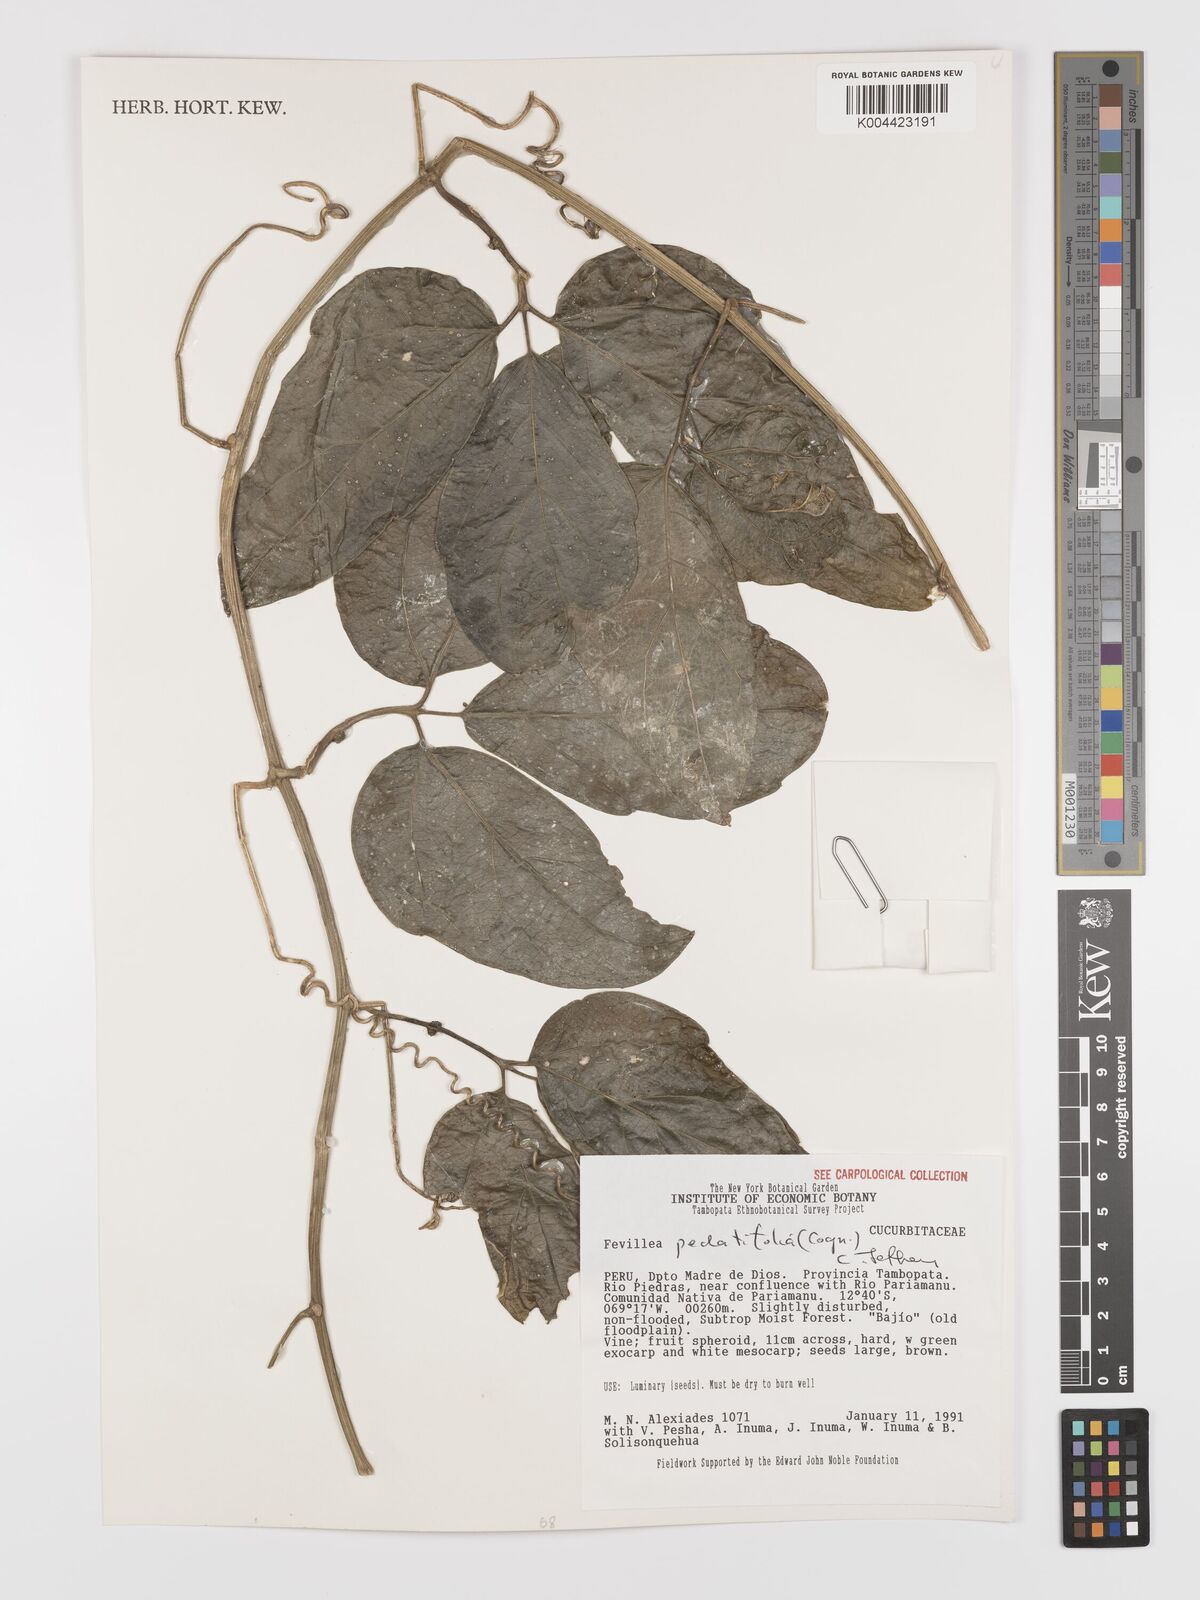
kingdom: Plantae
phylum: Tracheophyta
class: Magnoliopsida
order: Cucurbitales
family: Cucurbitaceae
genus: Fevillea
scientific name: Fevillea pedatifolia
